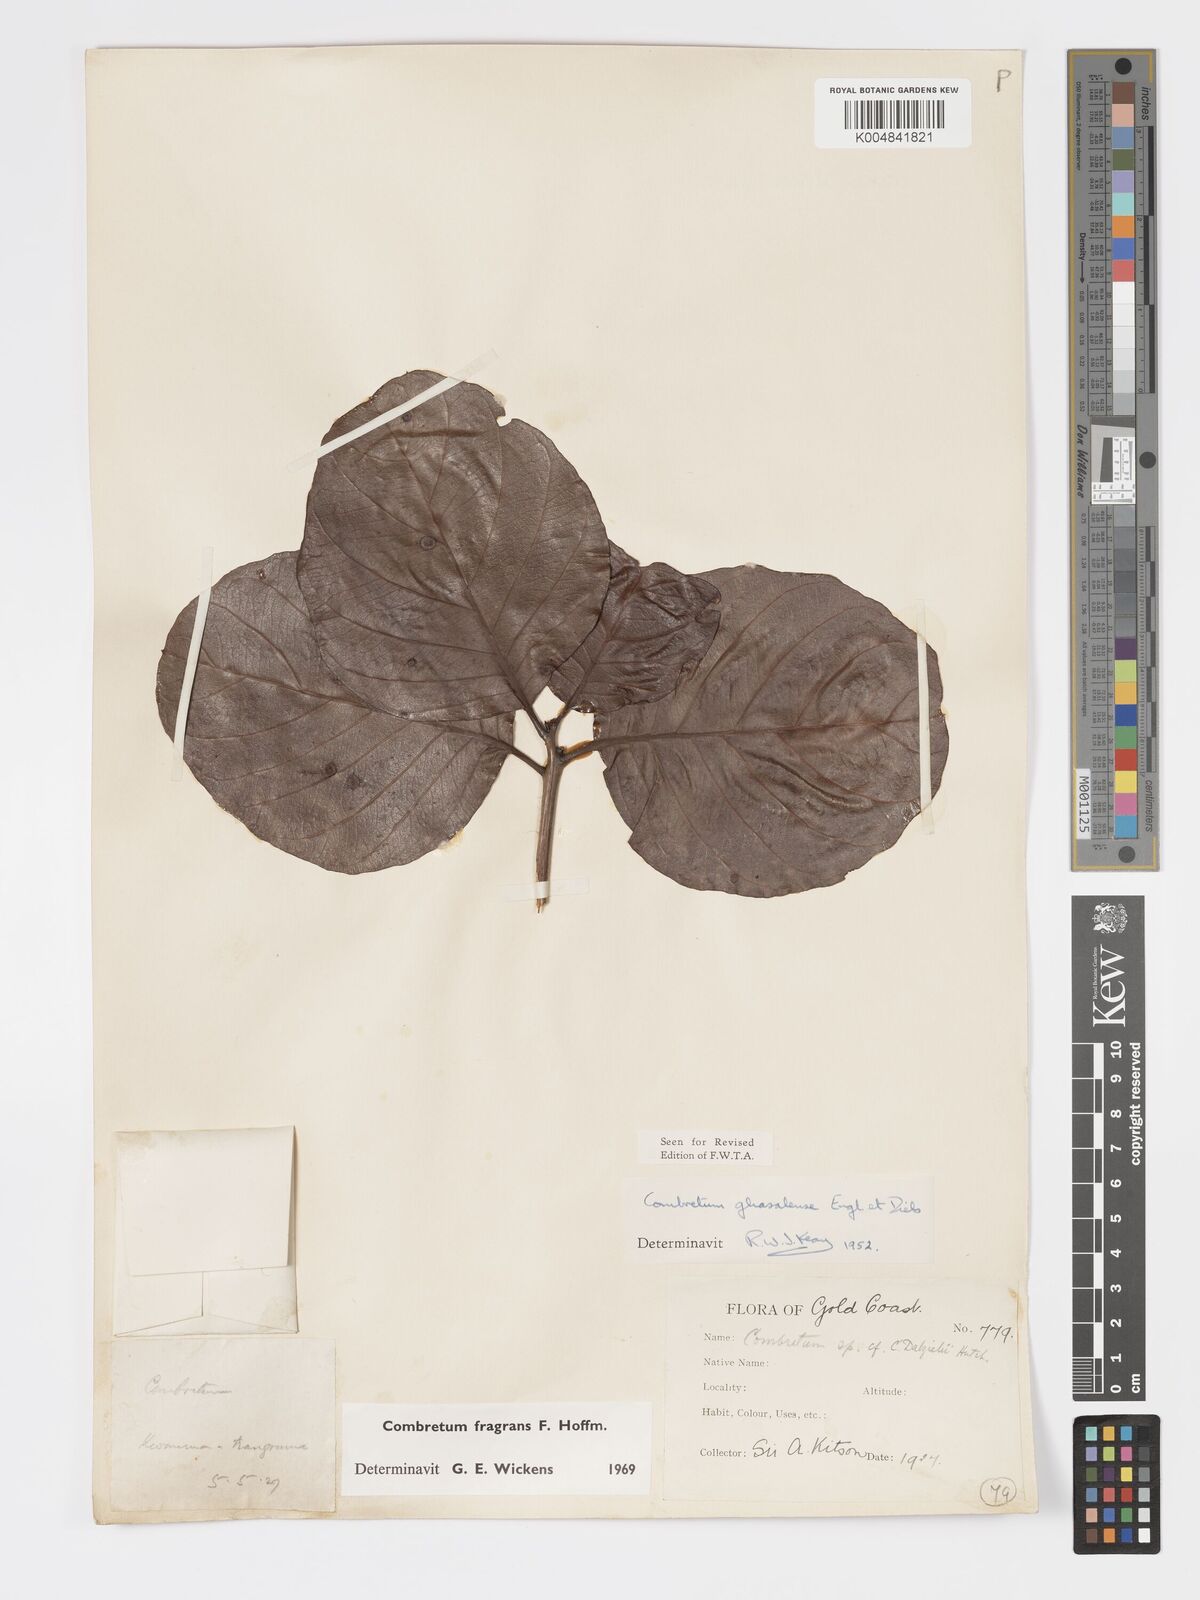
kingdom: Plantae
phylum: Tracheophyta
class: Magnoliopsida
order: Myrtales
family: Combretaceae
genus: Combretum
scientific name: Combretum adenogonium
